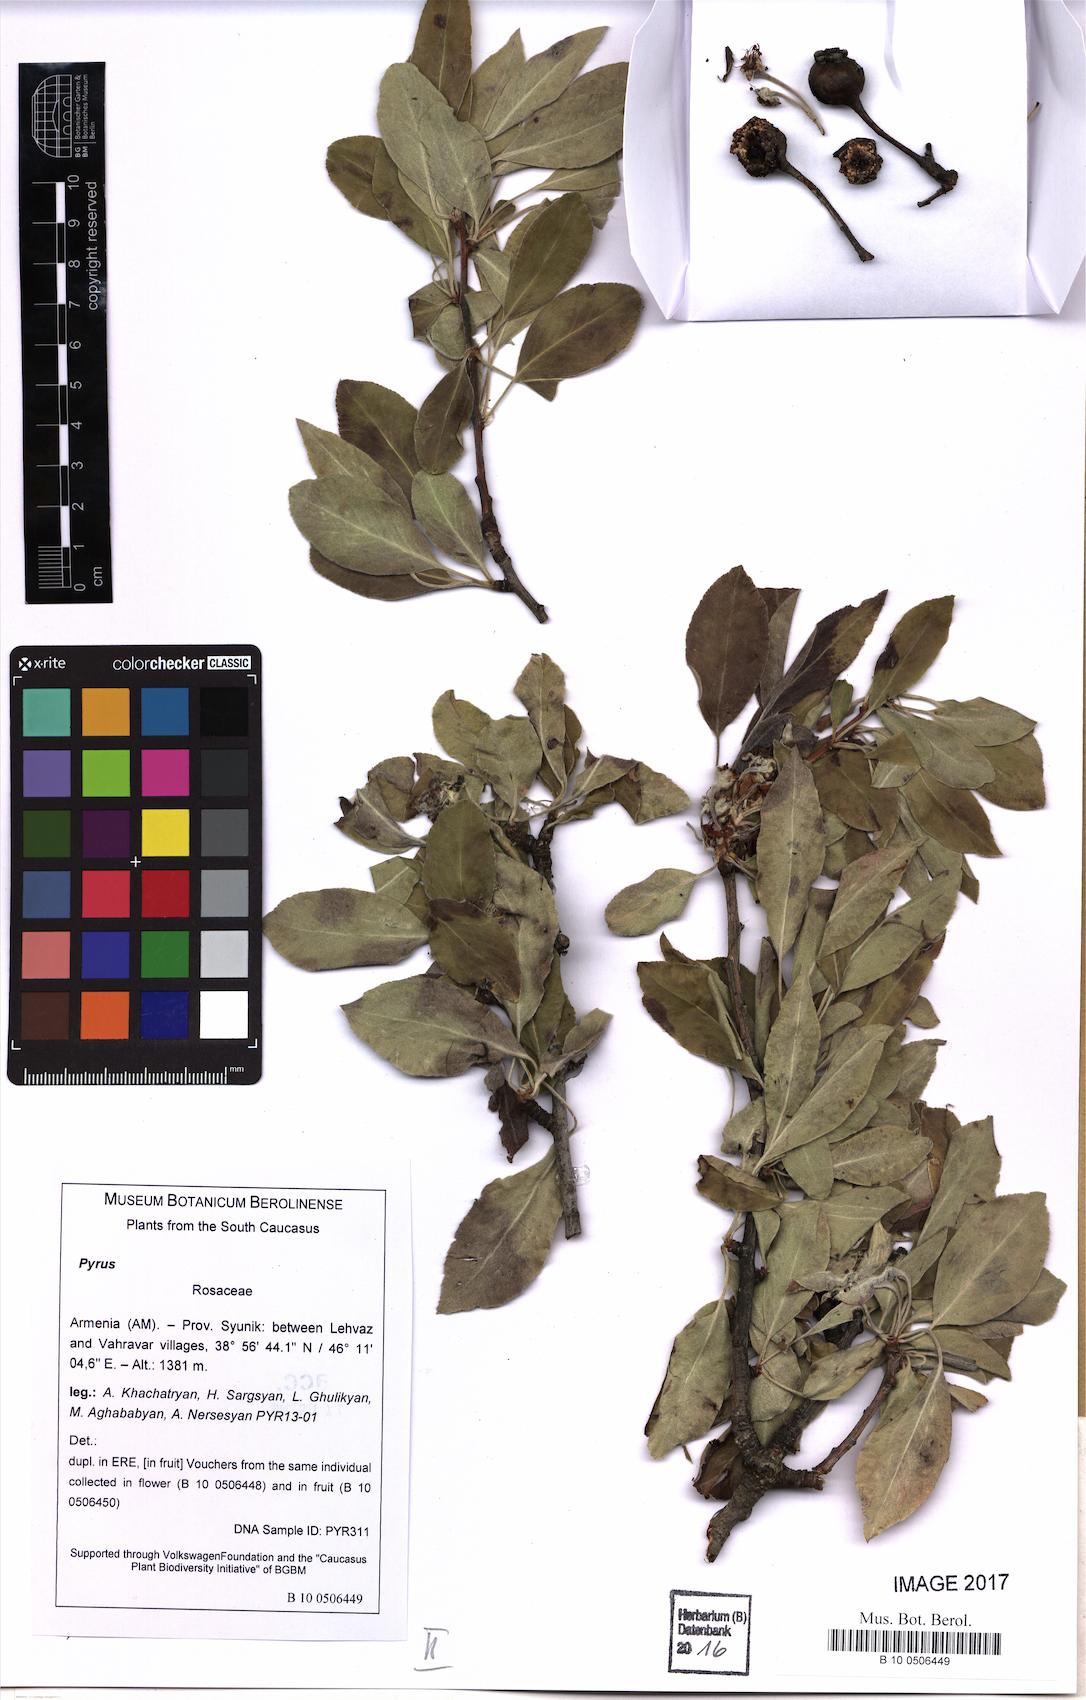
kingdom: Plantae
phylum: Tracheophyta
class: Magnoliopsida
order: Rosales
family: Rosaceae
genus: Pyrus
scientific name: Pyrus
